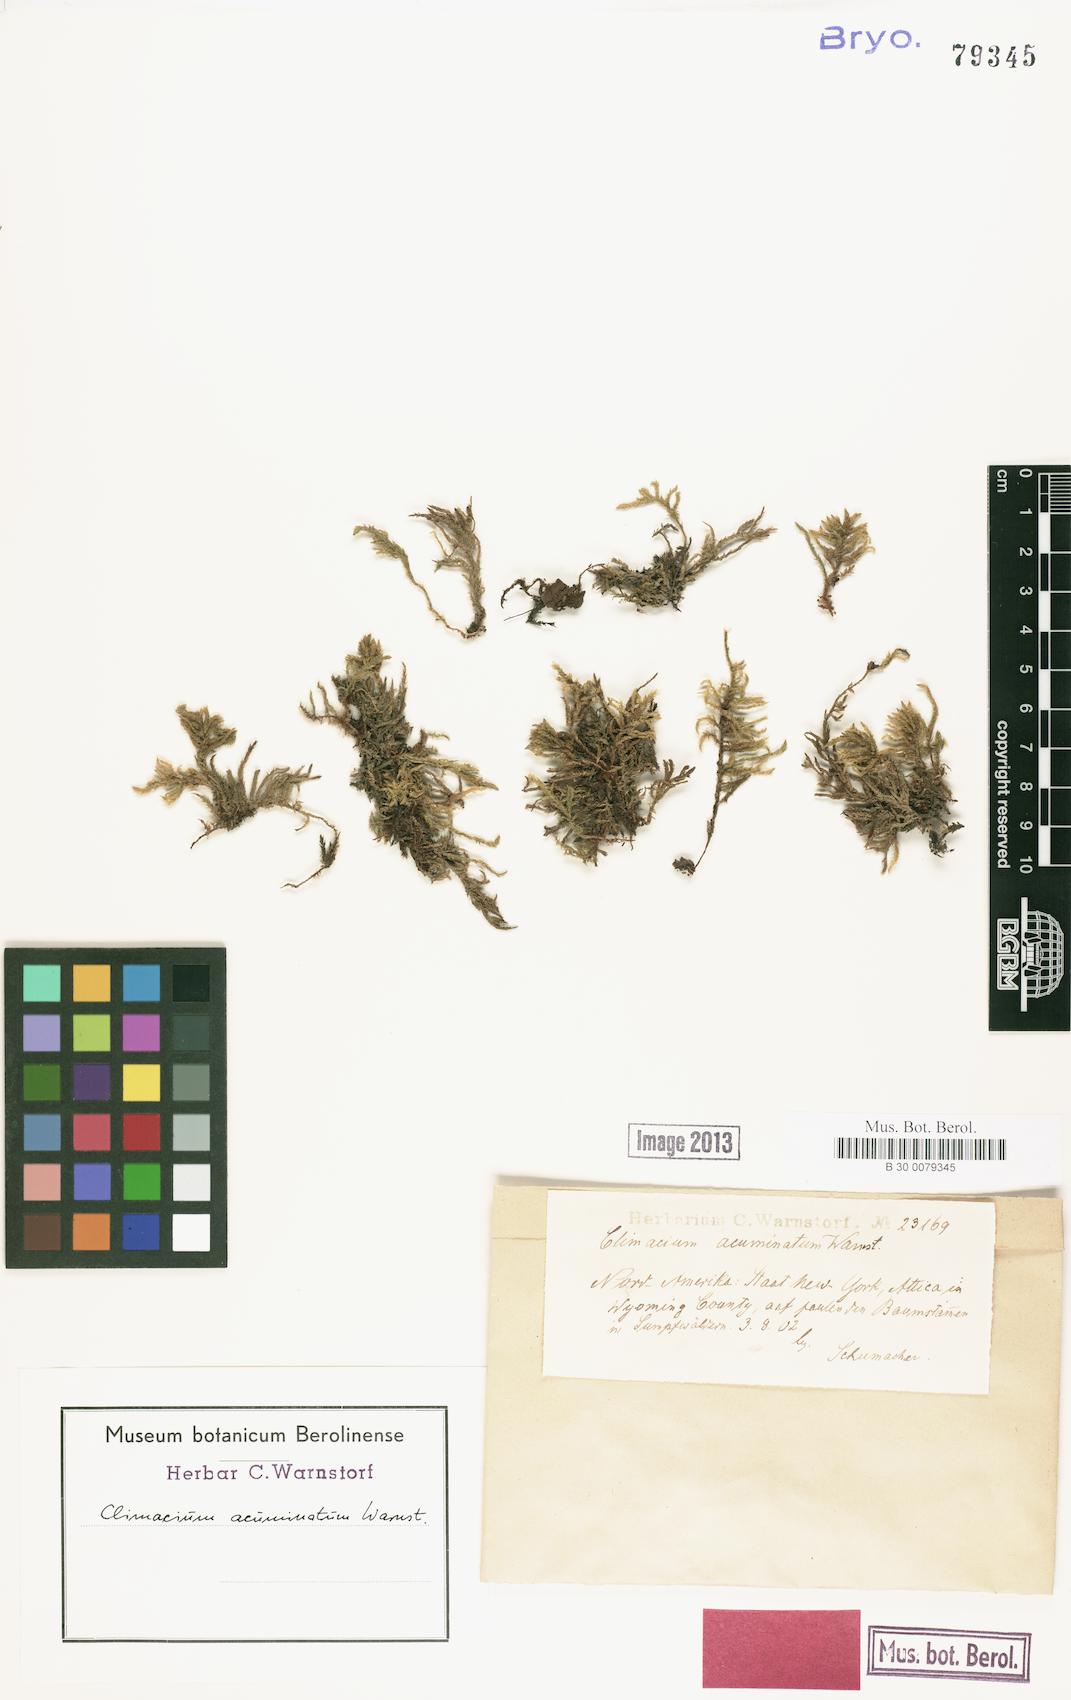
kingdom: Plantae
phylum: Bryophyta
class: Bryopsida
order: Hypnales
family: Climaciaceae
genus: Climacium
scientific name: Climacium acuminatum
